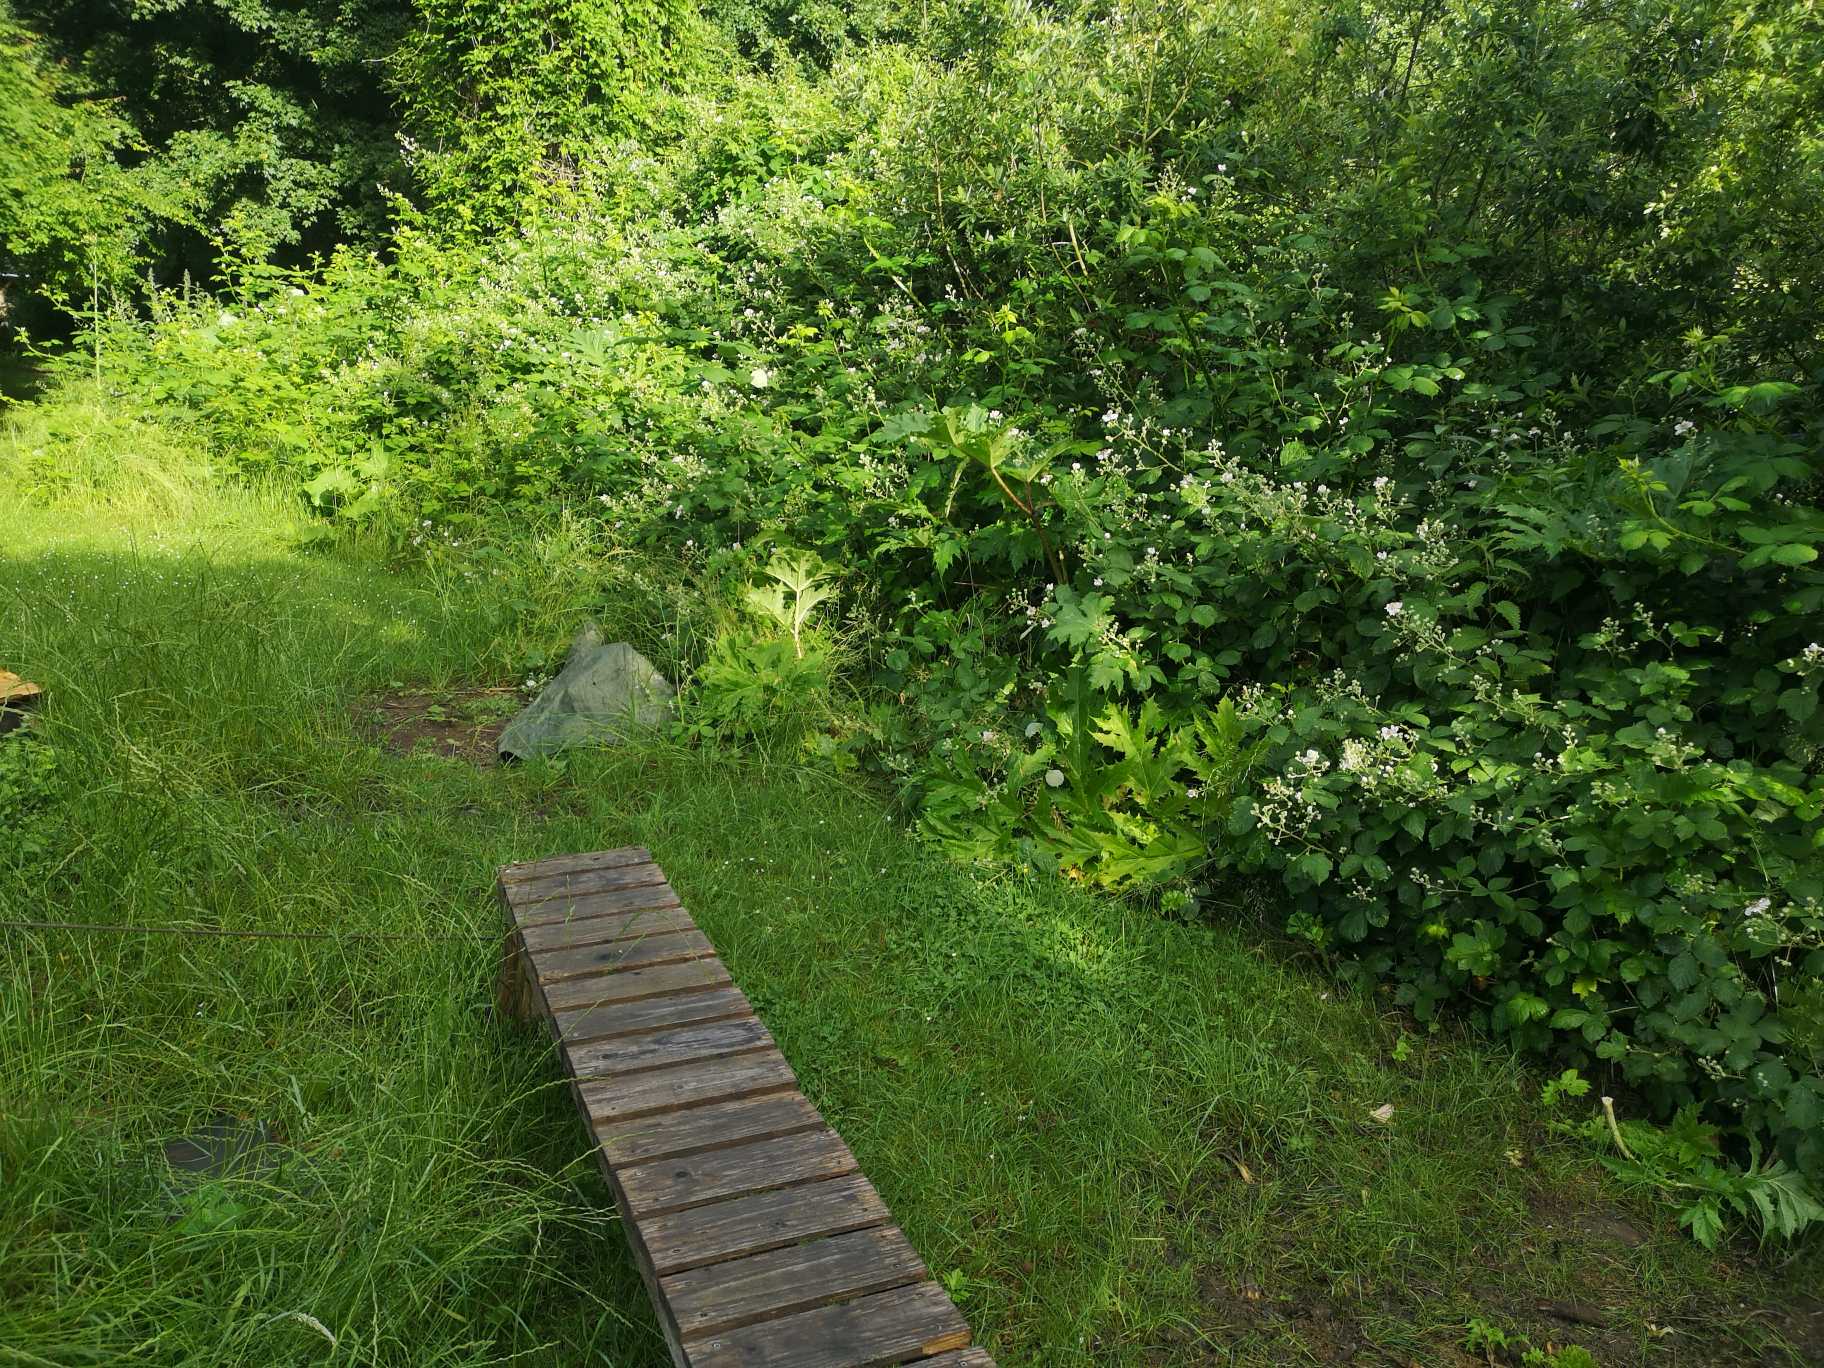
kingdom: Plantae
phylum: Tracheophyta
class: Magnoliopsida
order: Apiales
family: Apiaceae
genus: Heracleum
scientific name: Heracleum mantegazzianum
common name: Kæmpe-bjørneklo
